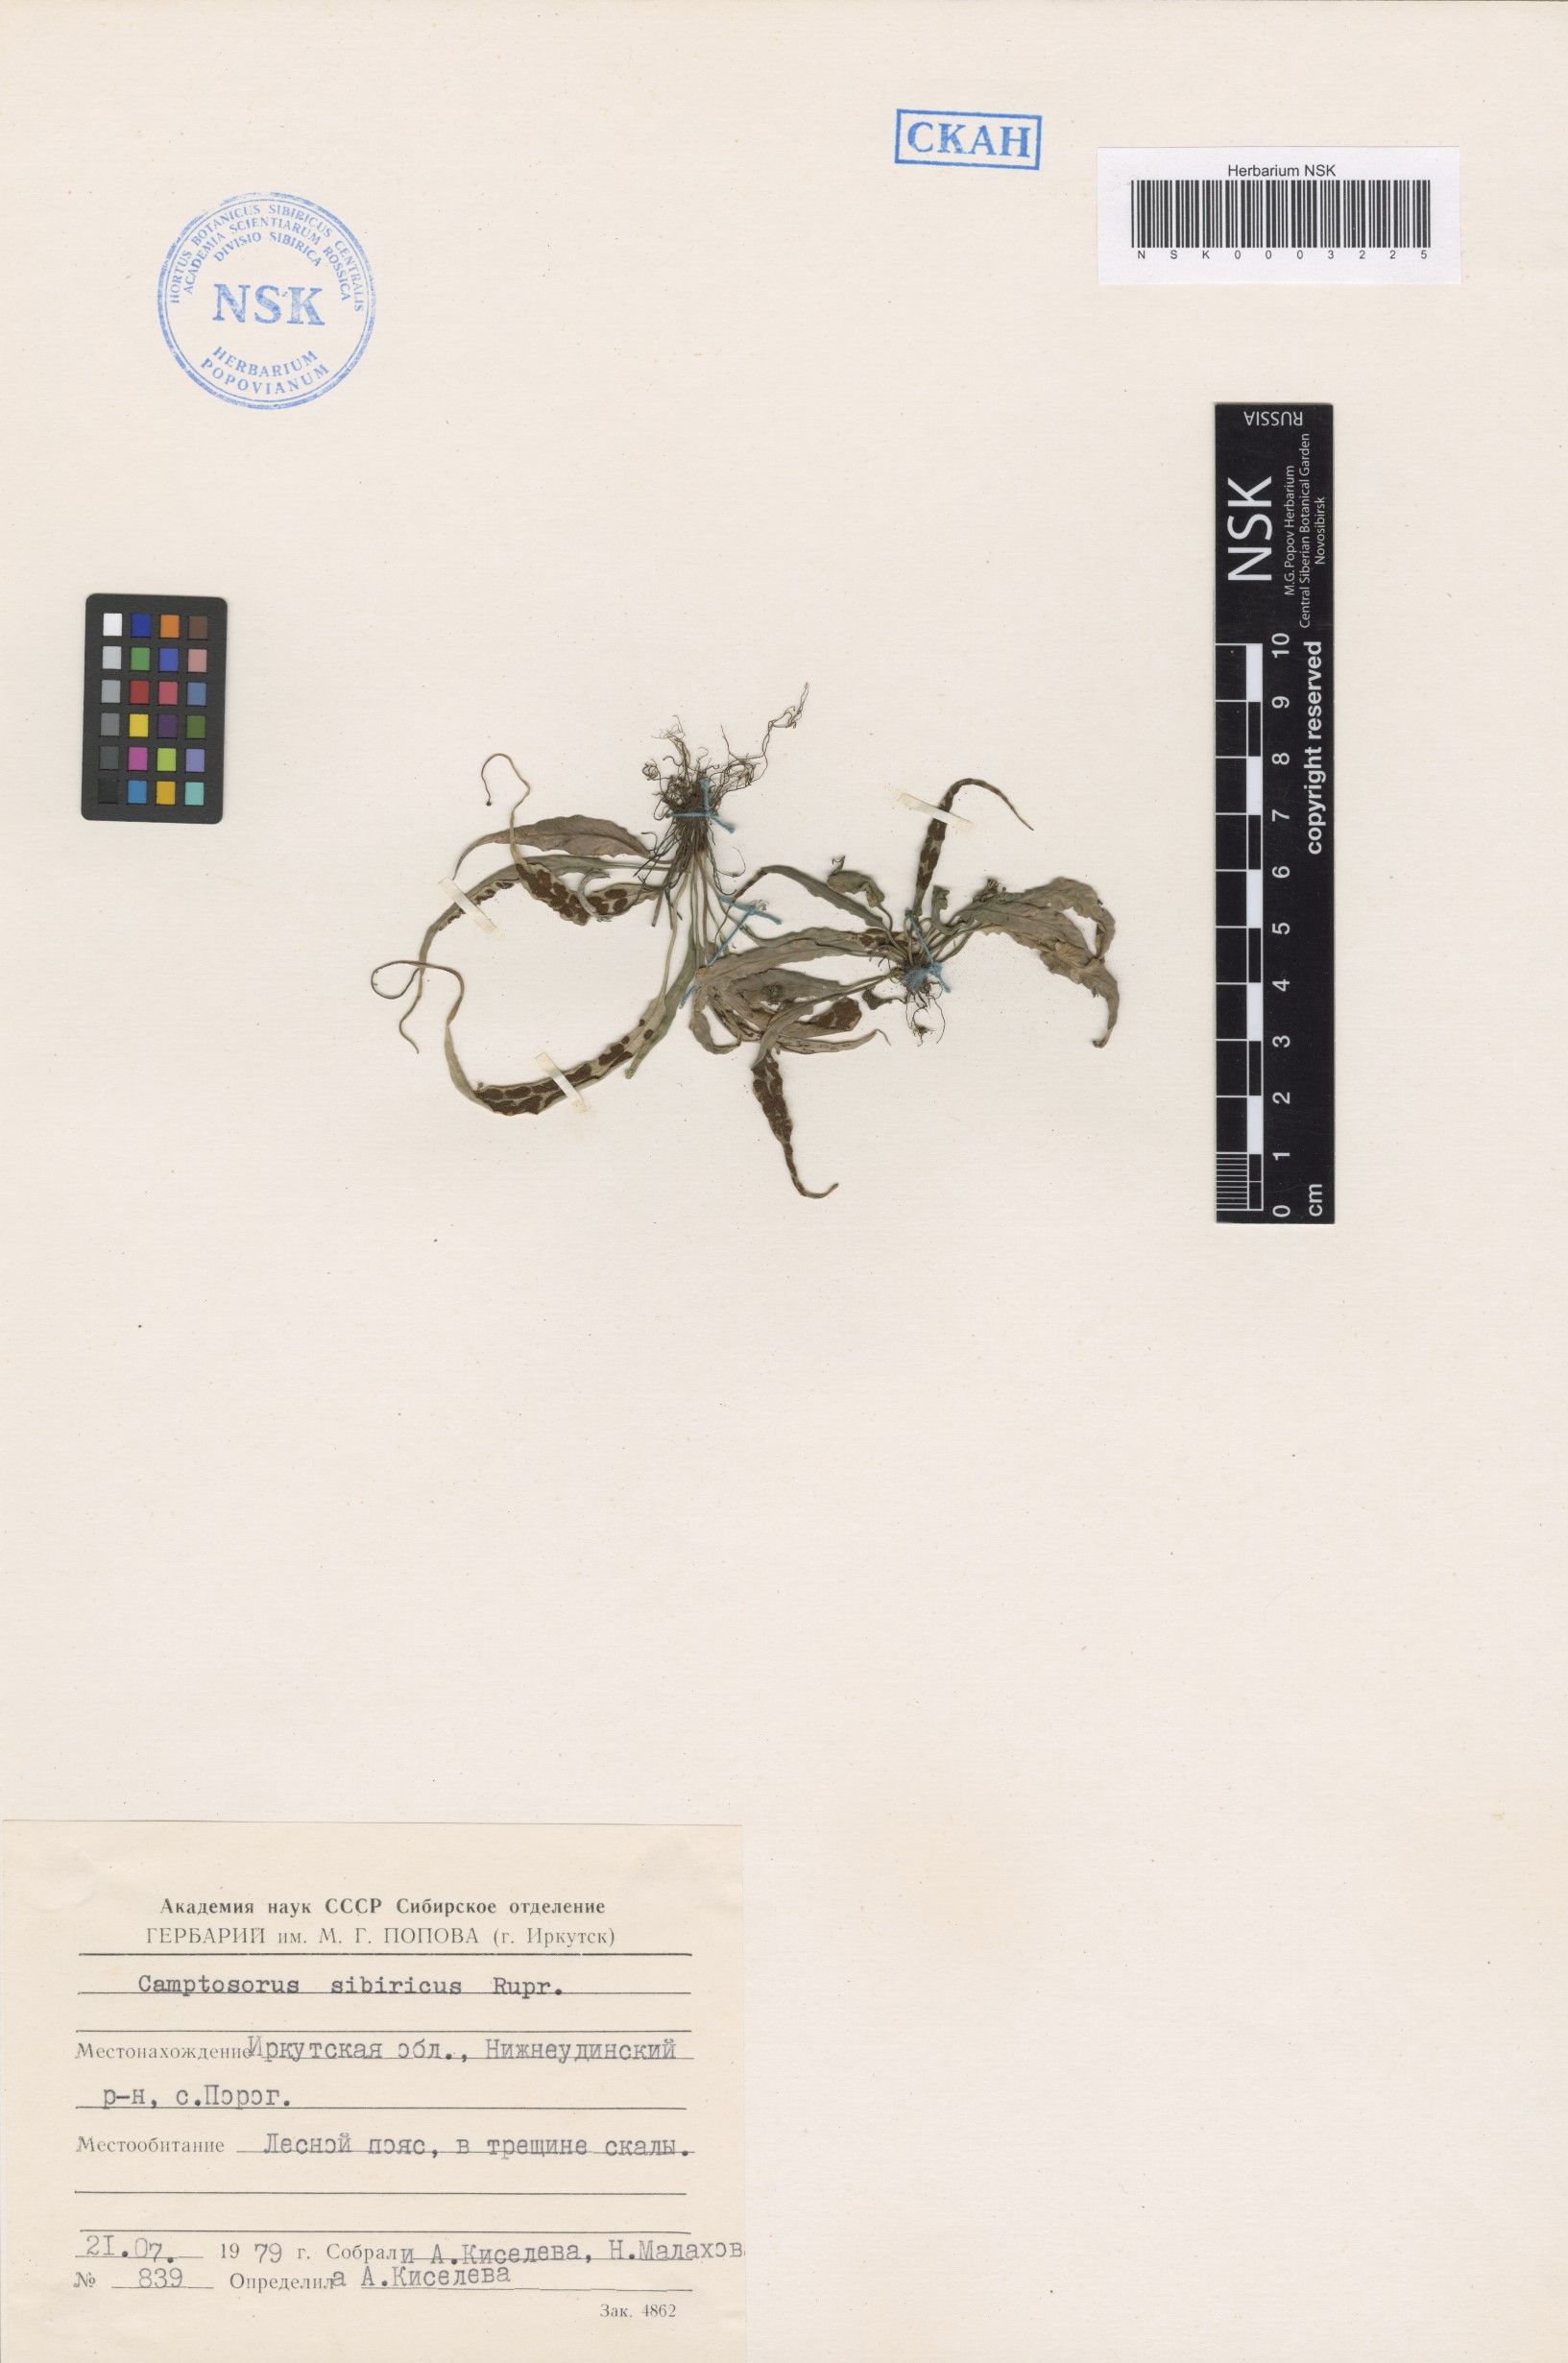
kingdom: Plantae
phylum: Tracheophyta
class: Polypodiopsida
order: Polypodiales
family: Aspleniaceae
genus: Asplenium
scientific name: Asplenium ruprechtii
